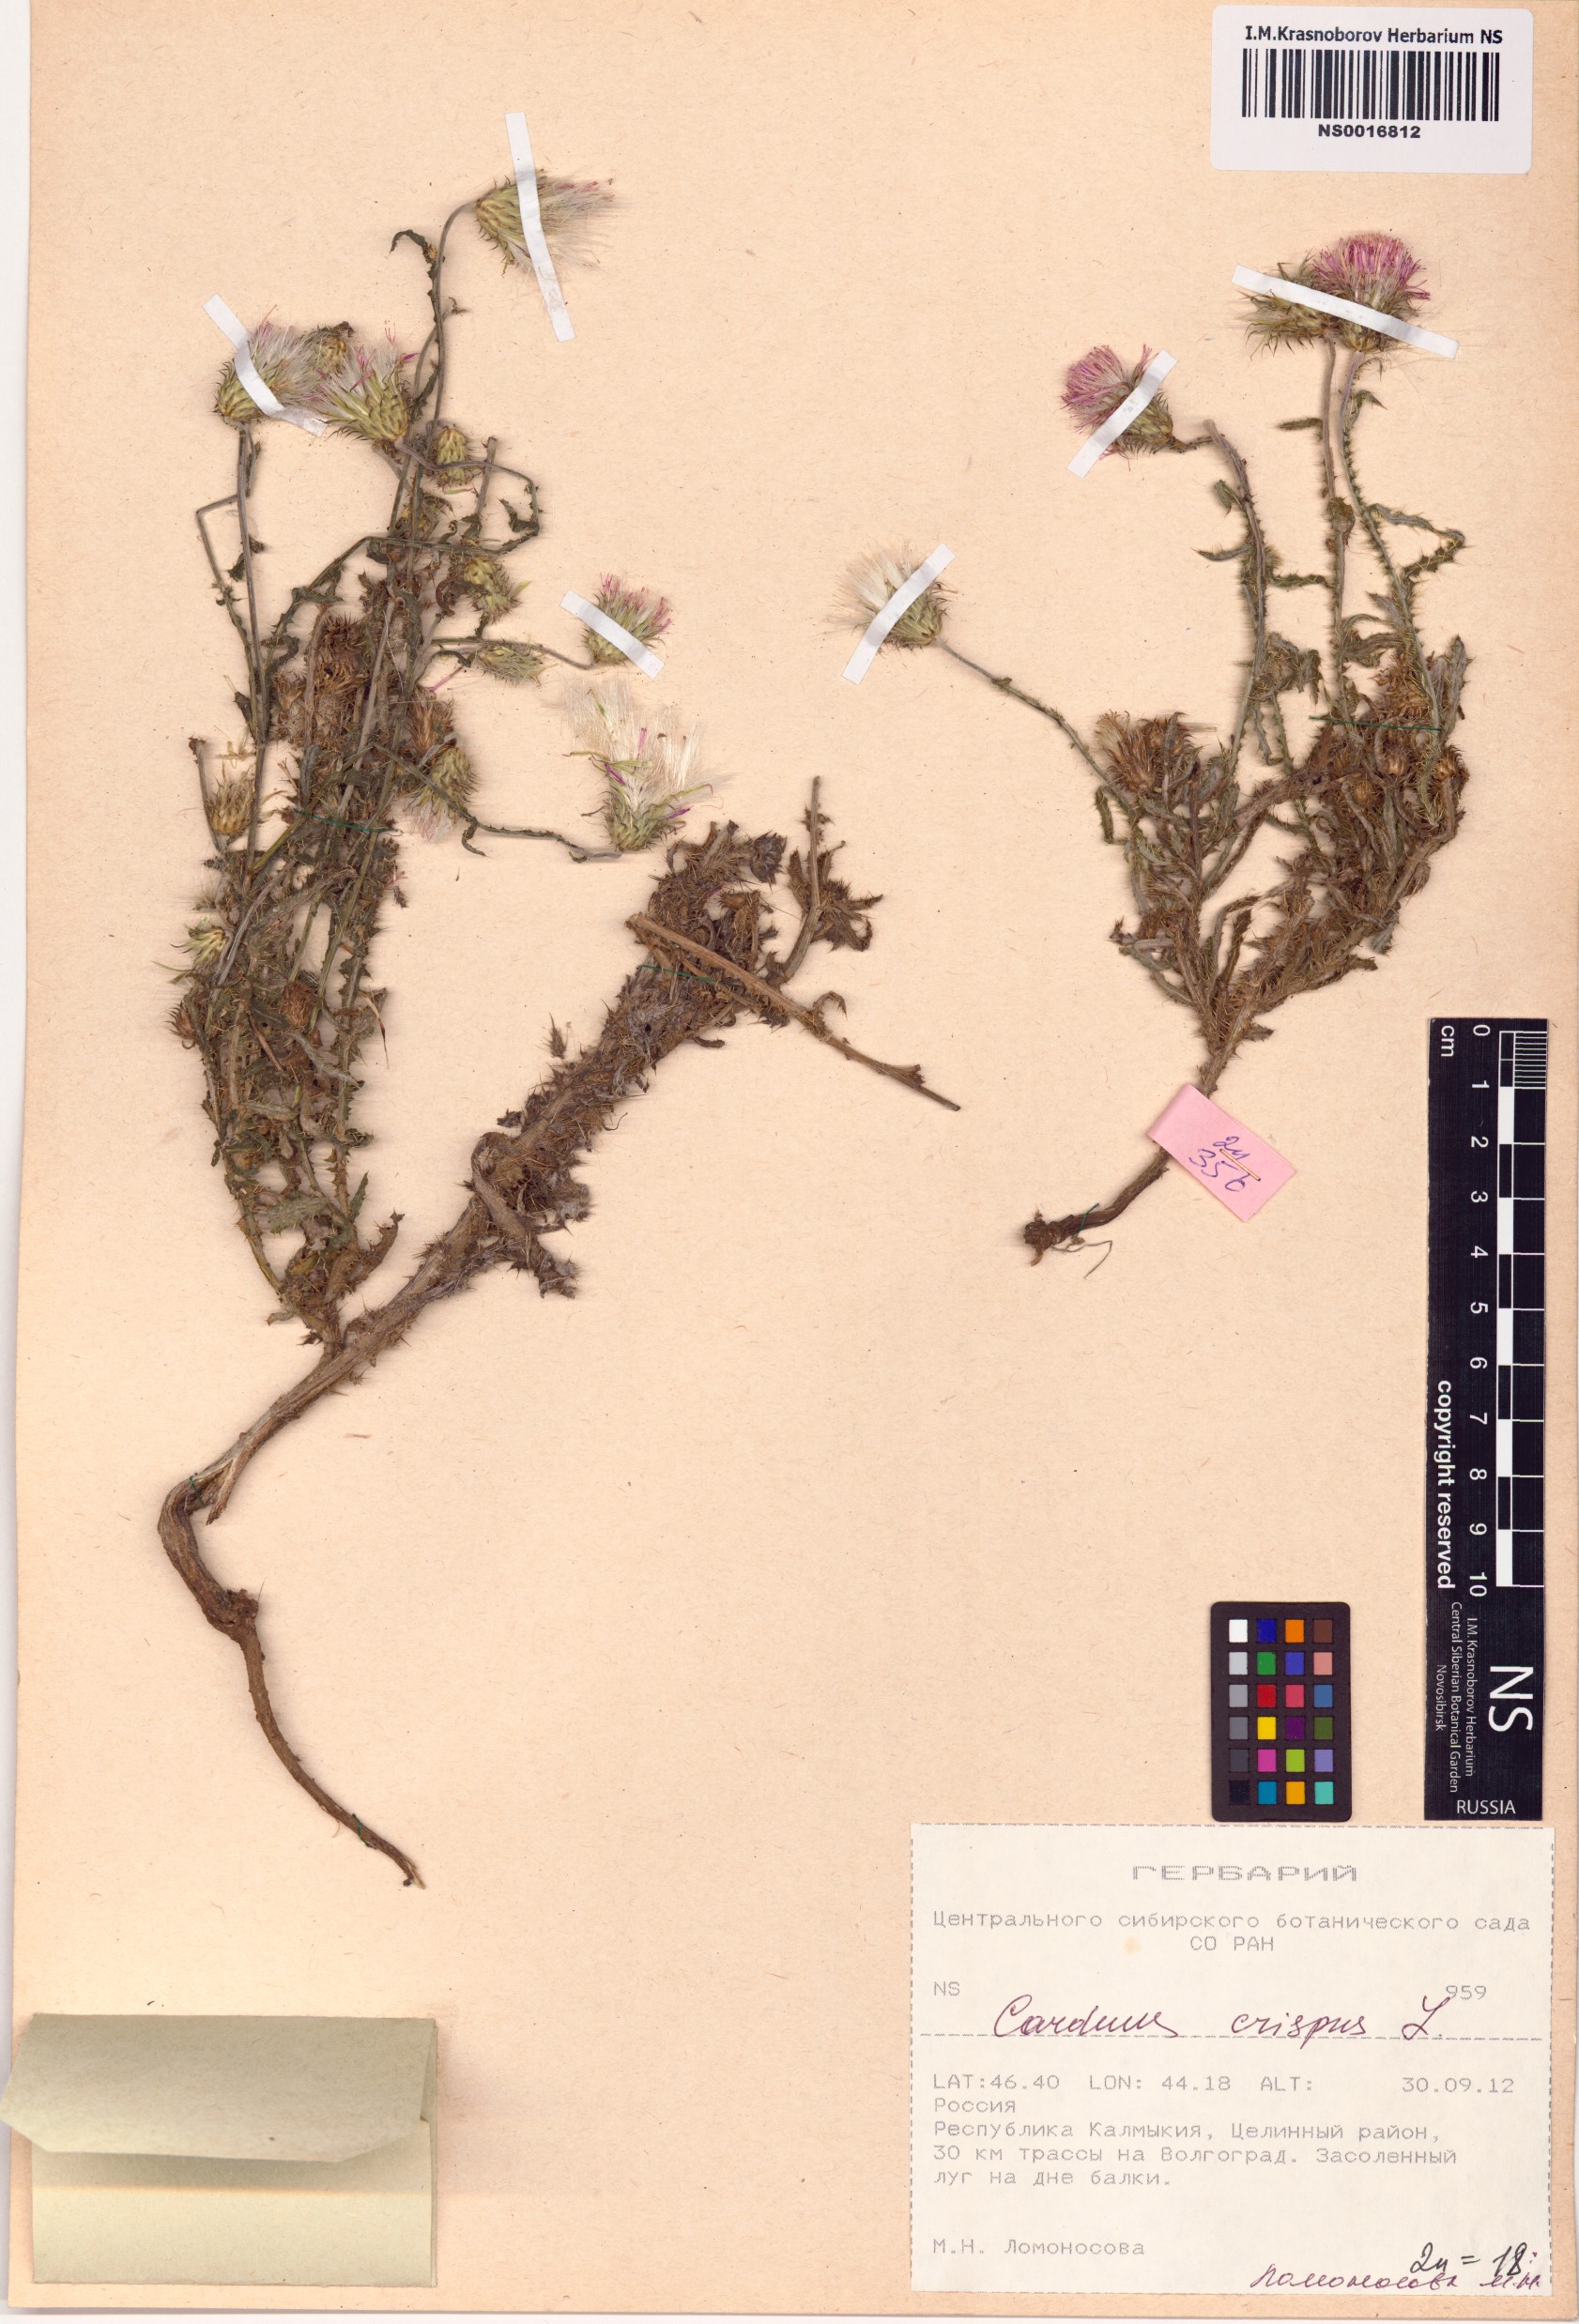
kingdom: Plantae
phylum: Tracheophyta
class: Magnoliopsida
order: Asterales
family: Asteraceae
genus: Carduus
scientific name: Carduus crispus
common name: Welted thistle
